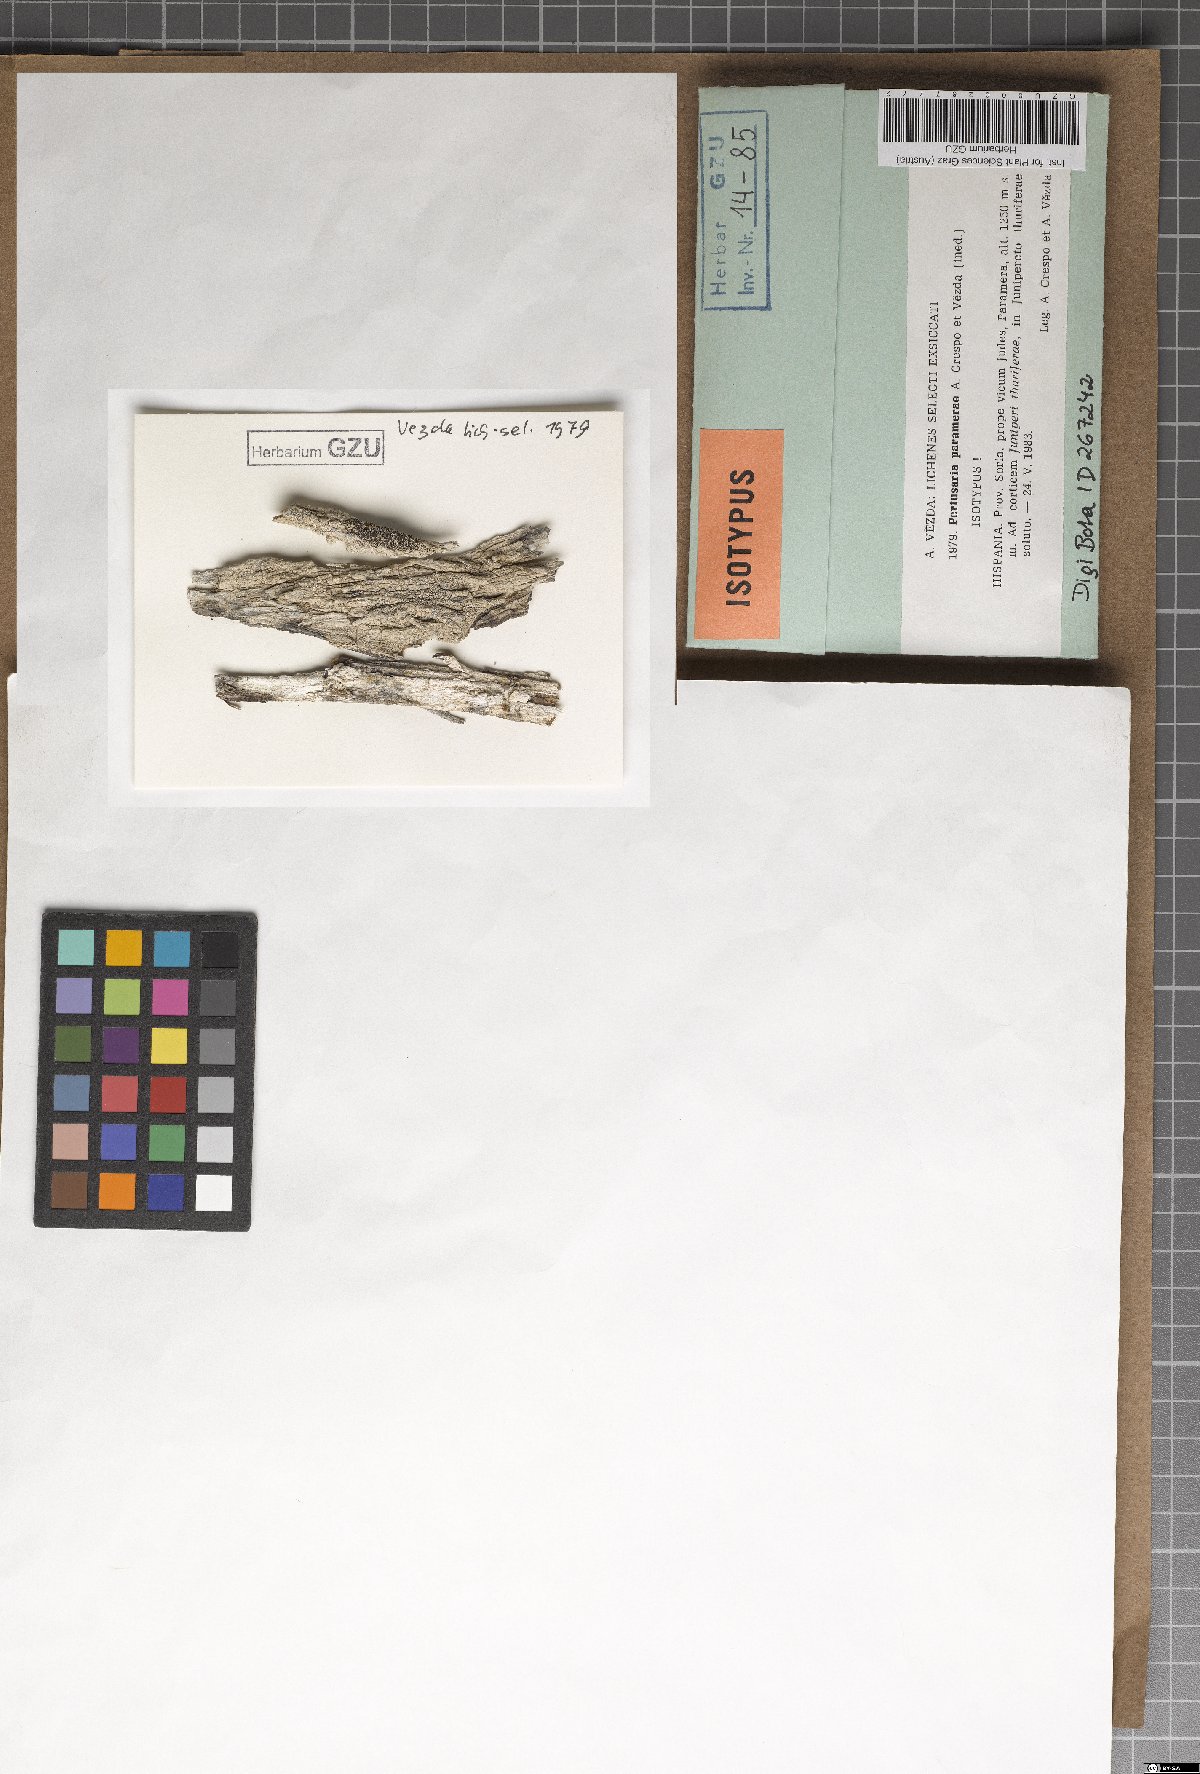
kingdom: Fungi
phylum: Ascomycota
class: Lecanoromycetes
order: Pertusariales
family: Pertusariaceae
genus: Pertusaria
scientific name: Pertusaria paramerae
